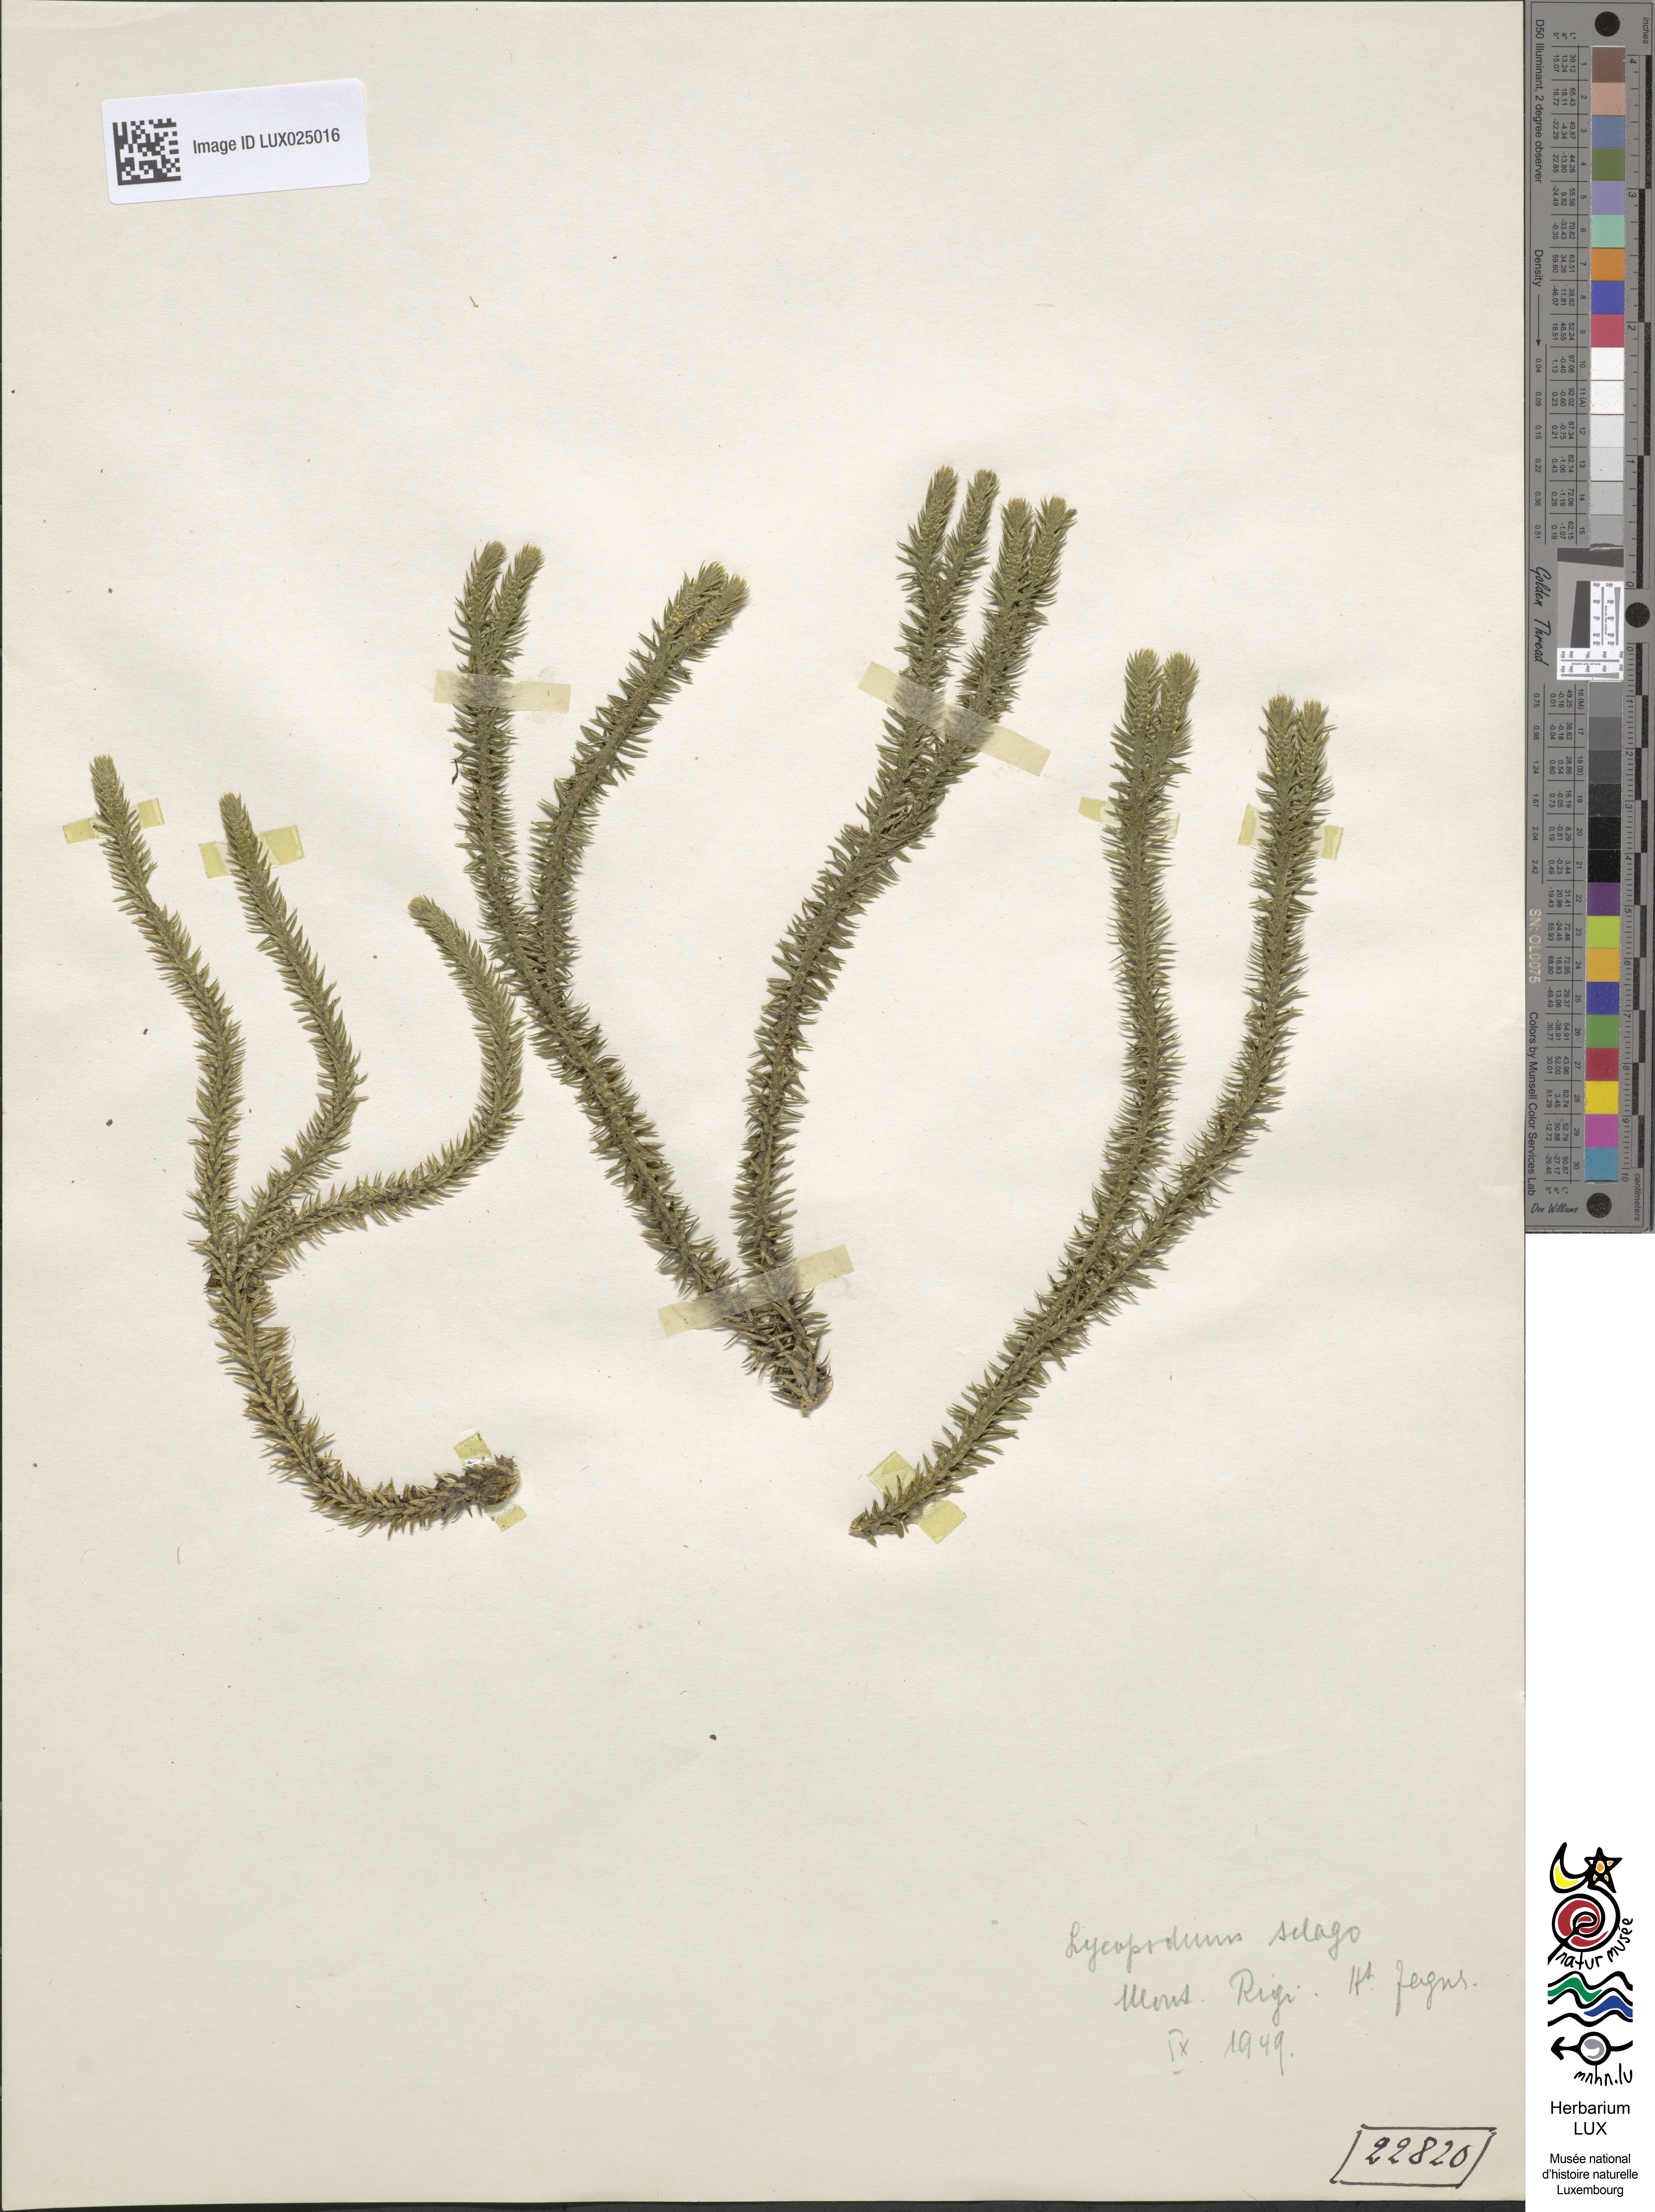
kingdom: Plantae
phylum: Tracheophyta
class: Lycopodiopsida
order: Lycopodiales
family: Lycopodiaceae
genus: Huperzia
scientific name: Huperzia selago
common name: Northern firmoss
